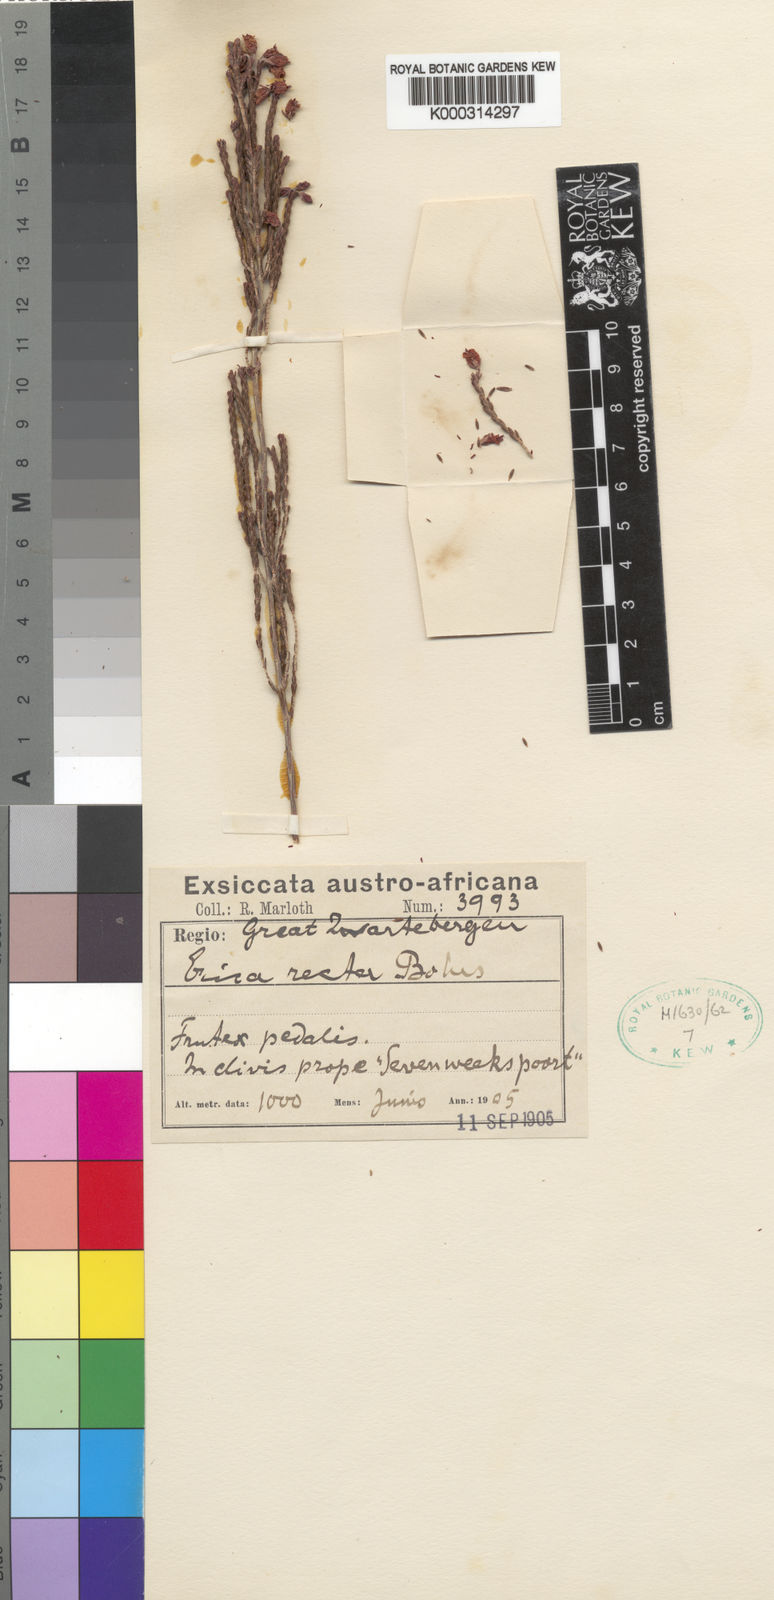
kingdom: Plantae
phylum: Tracheophyta
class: Magnoliopsida
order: Ericales
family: Ericaceae
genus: Erica
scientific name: Erica recta
